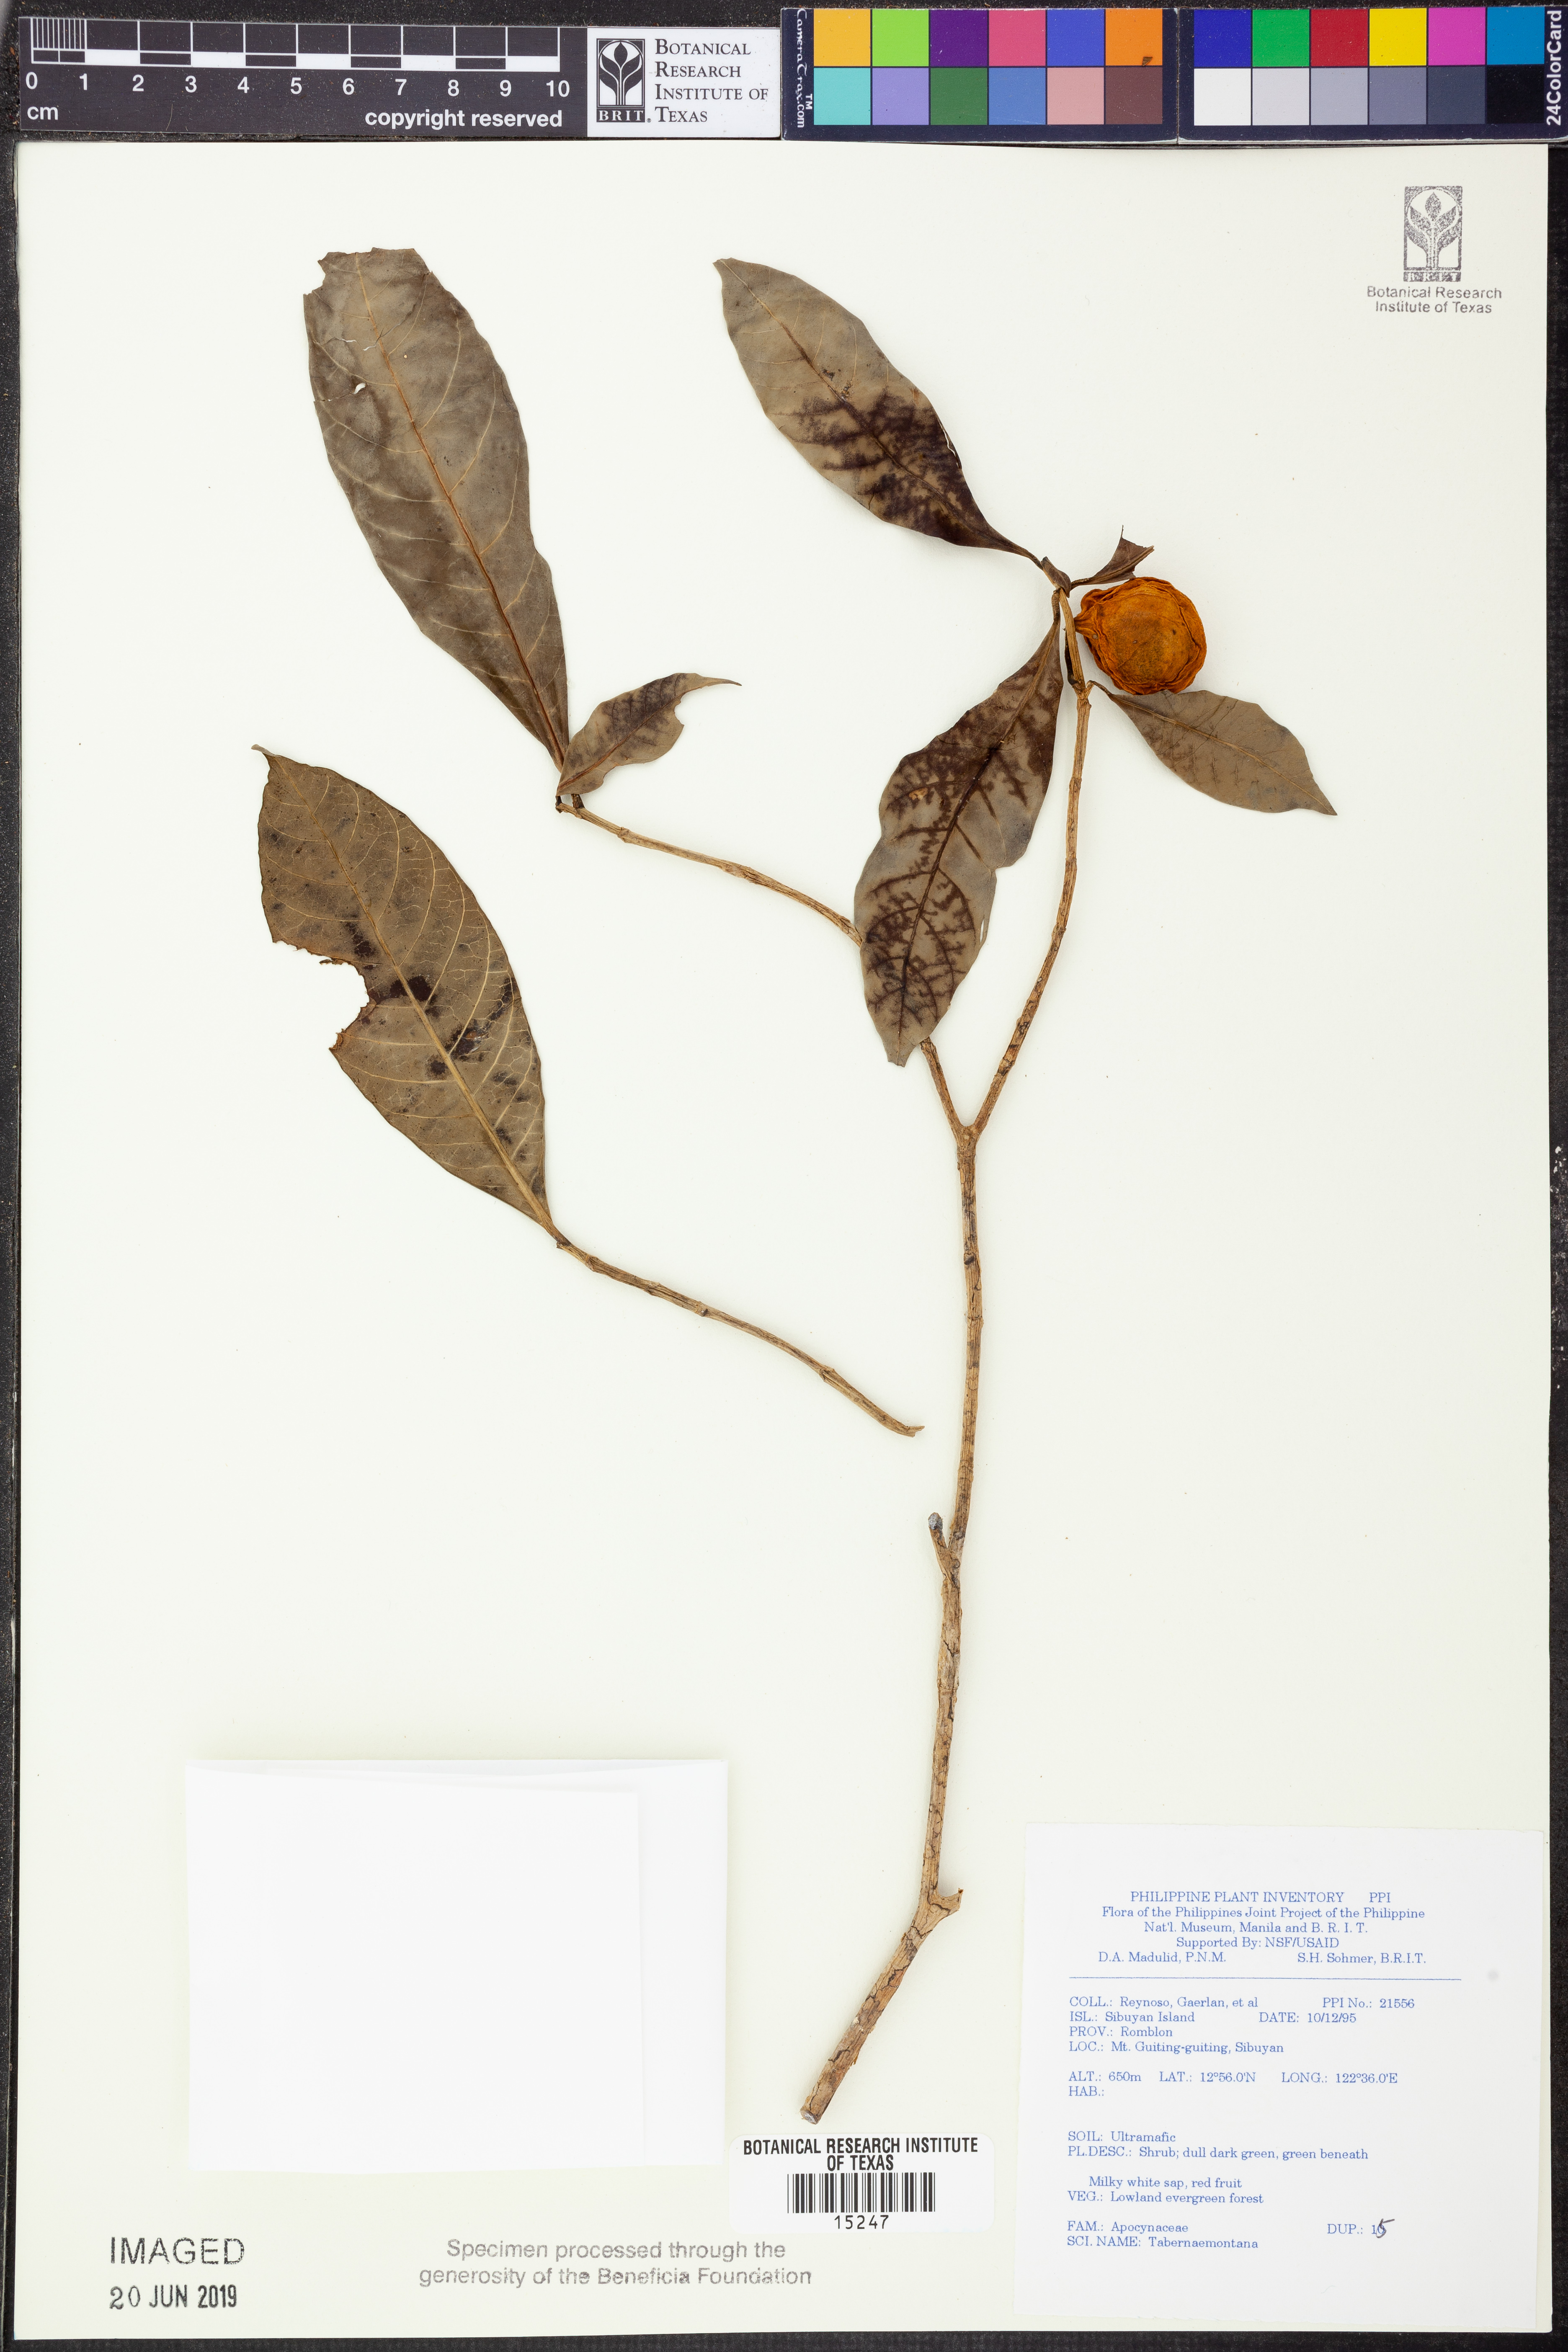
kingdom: Plantae
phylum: Tracheophyta
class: Magnoliopsida
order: Gentianales
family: Apocynaceae
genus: Tabernaemontana
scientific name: Tabernaemontana
